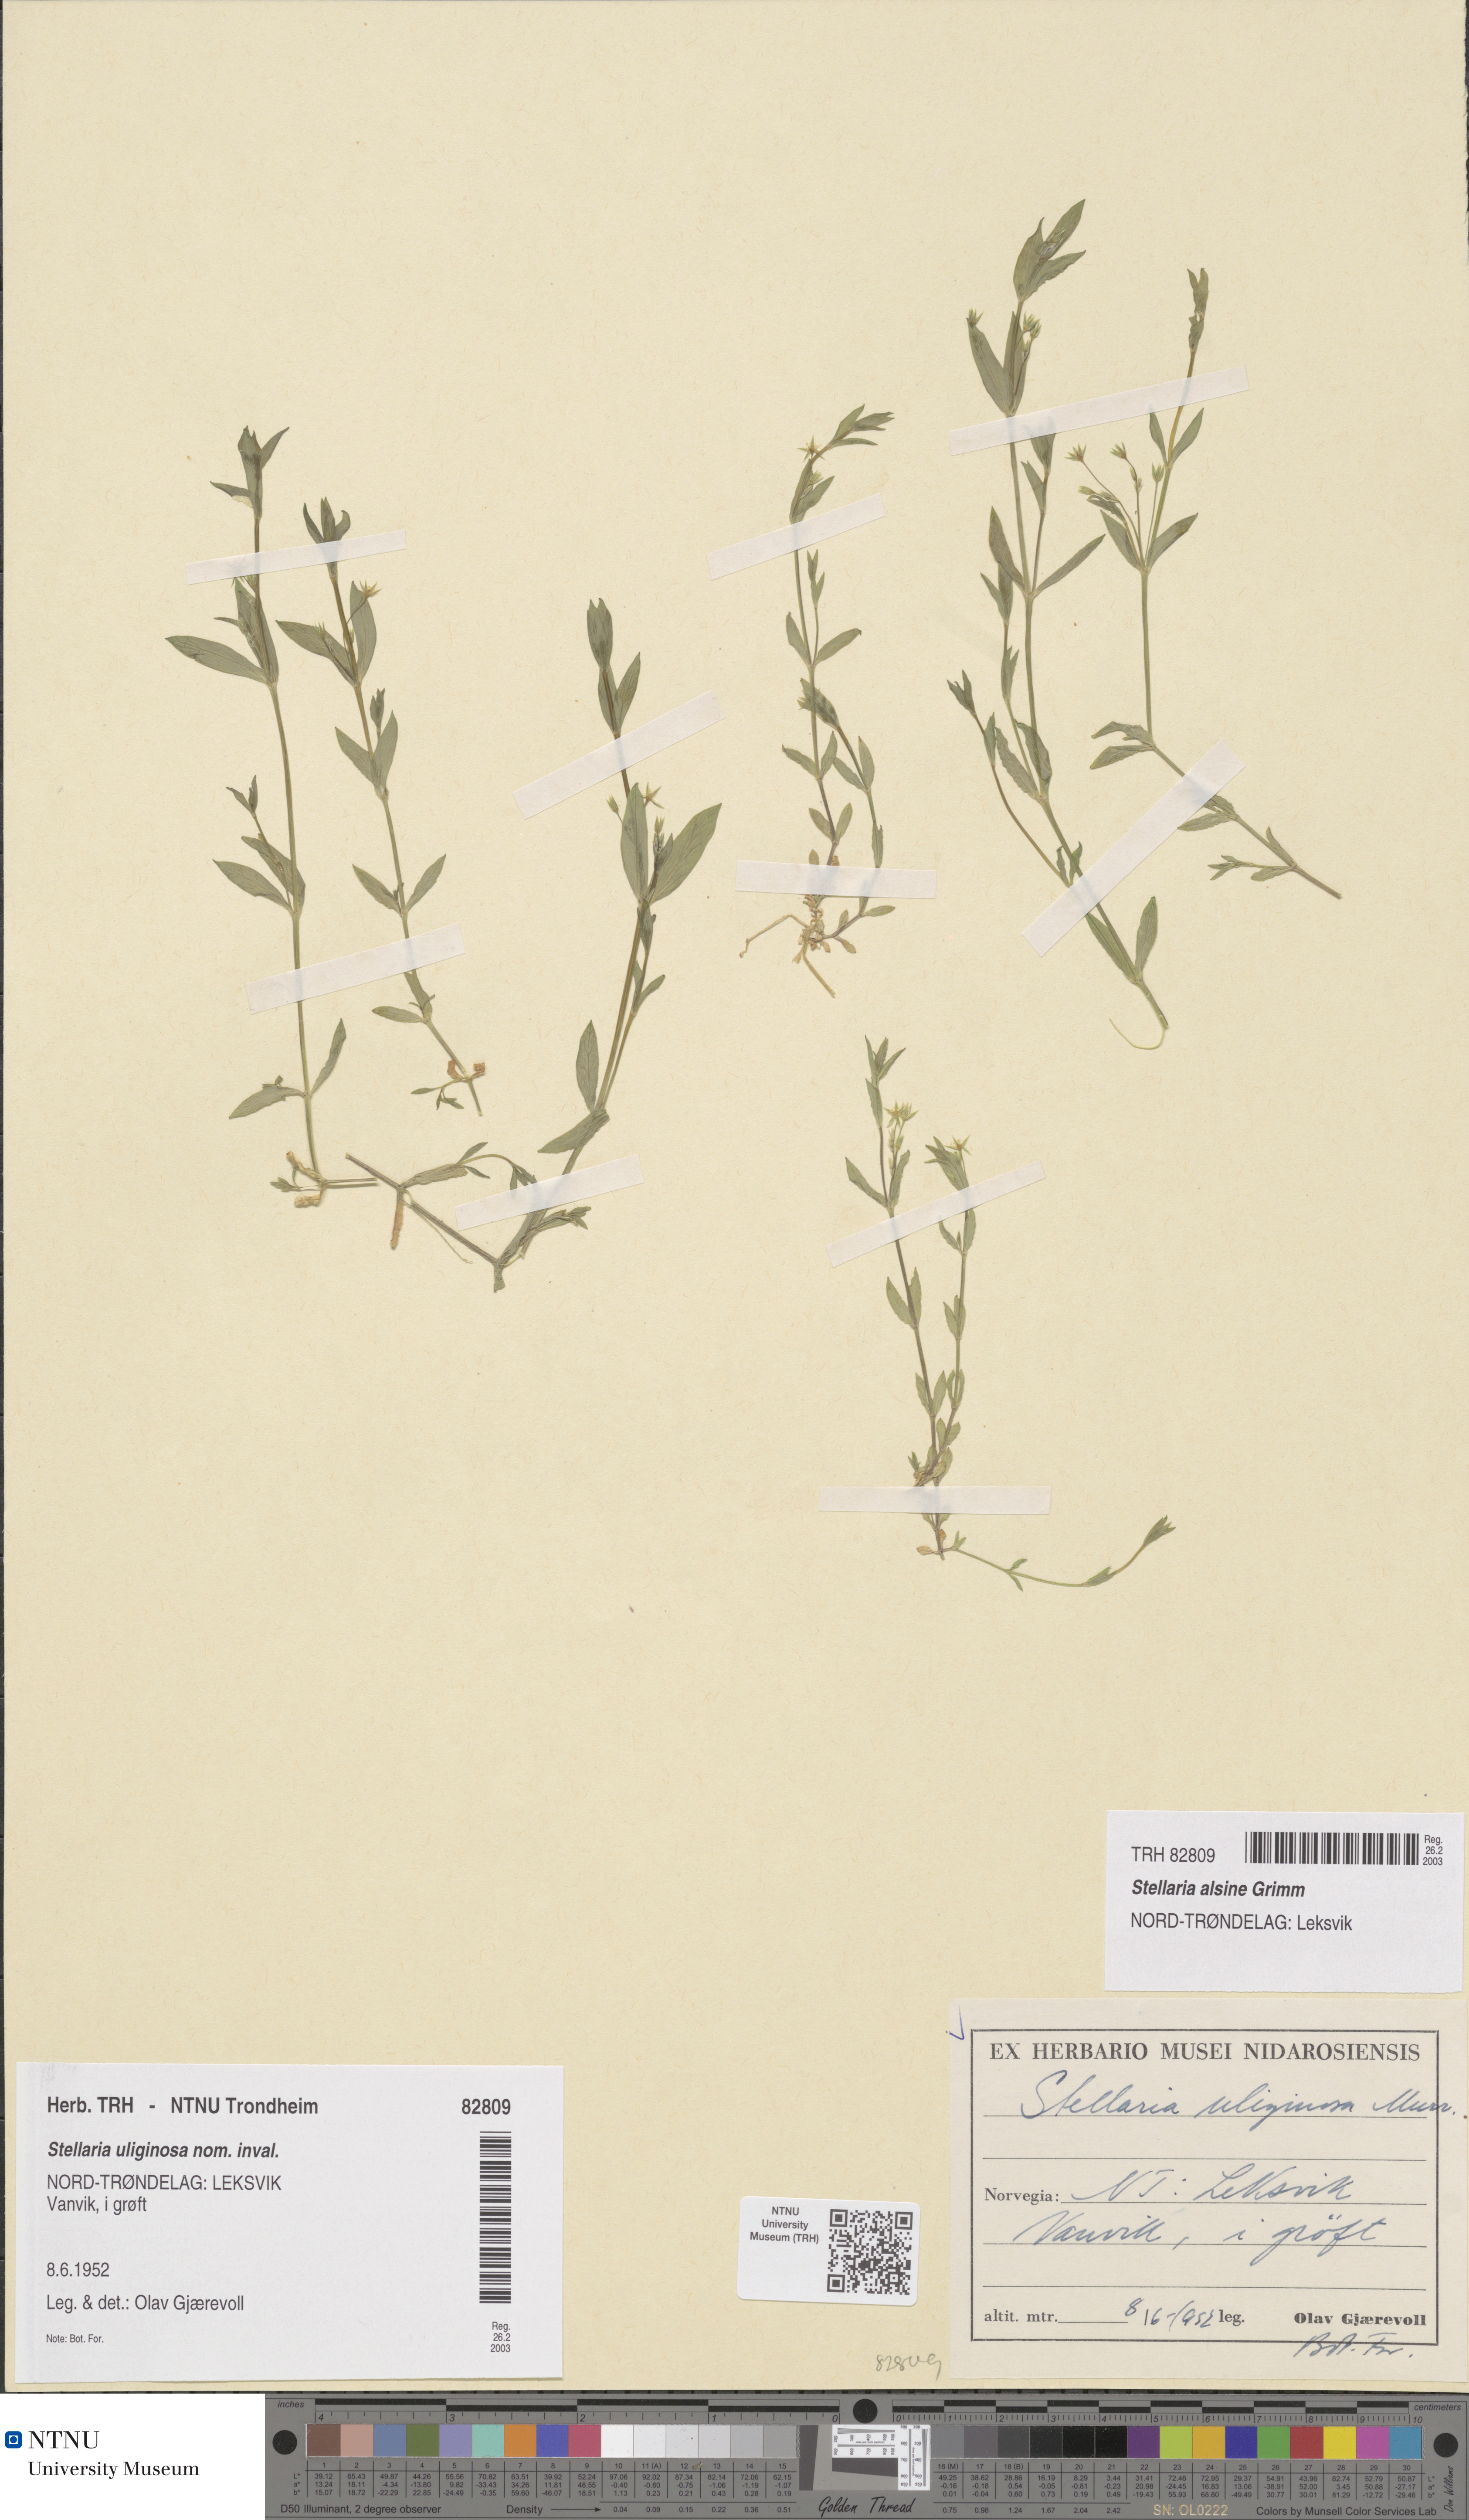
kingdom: Plantae
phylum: Tracheophyta
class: Magnoliopsida
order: Caryophyllales
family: Caryophyllaceae
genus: Stellaria
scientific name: Stellaria alsine
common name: Bog stitchwort
